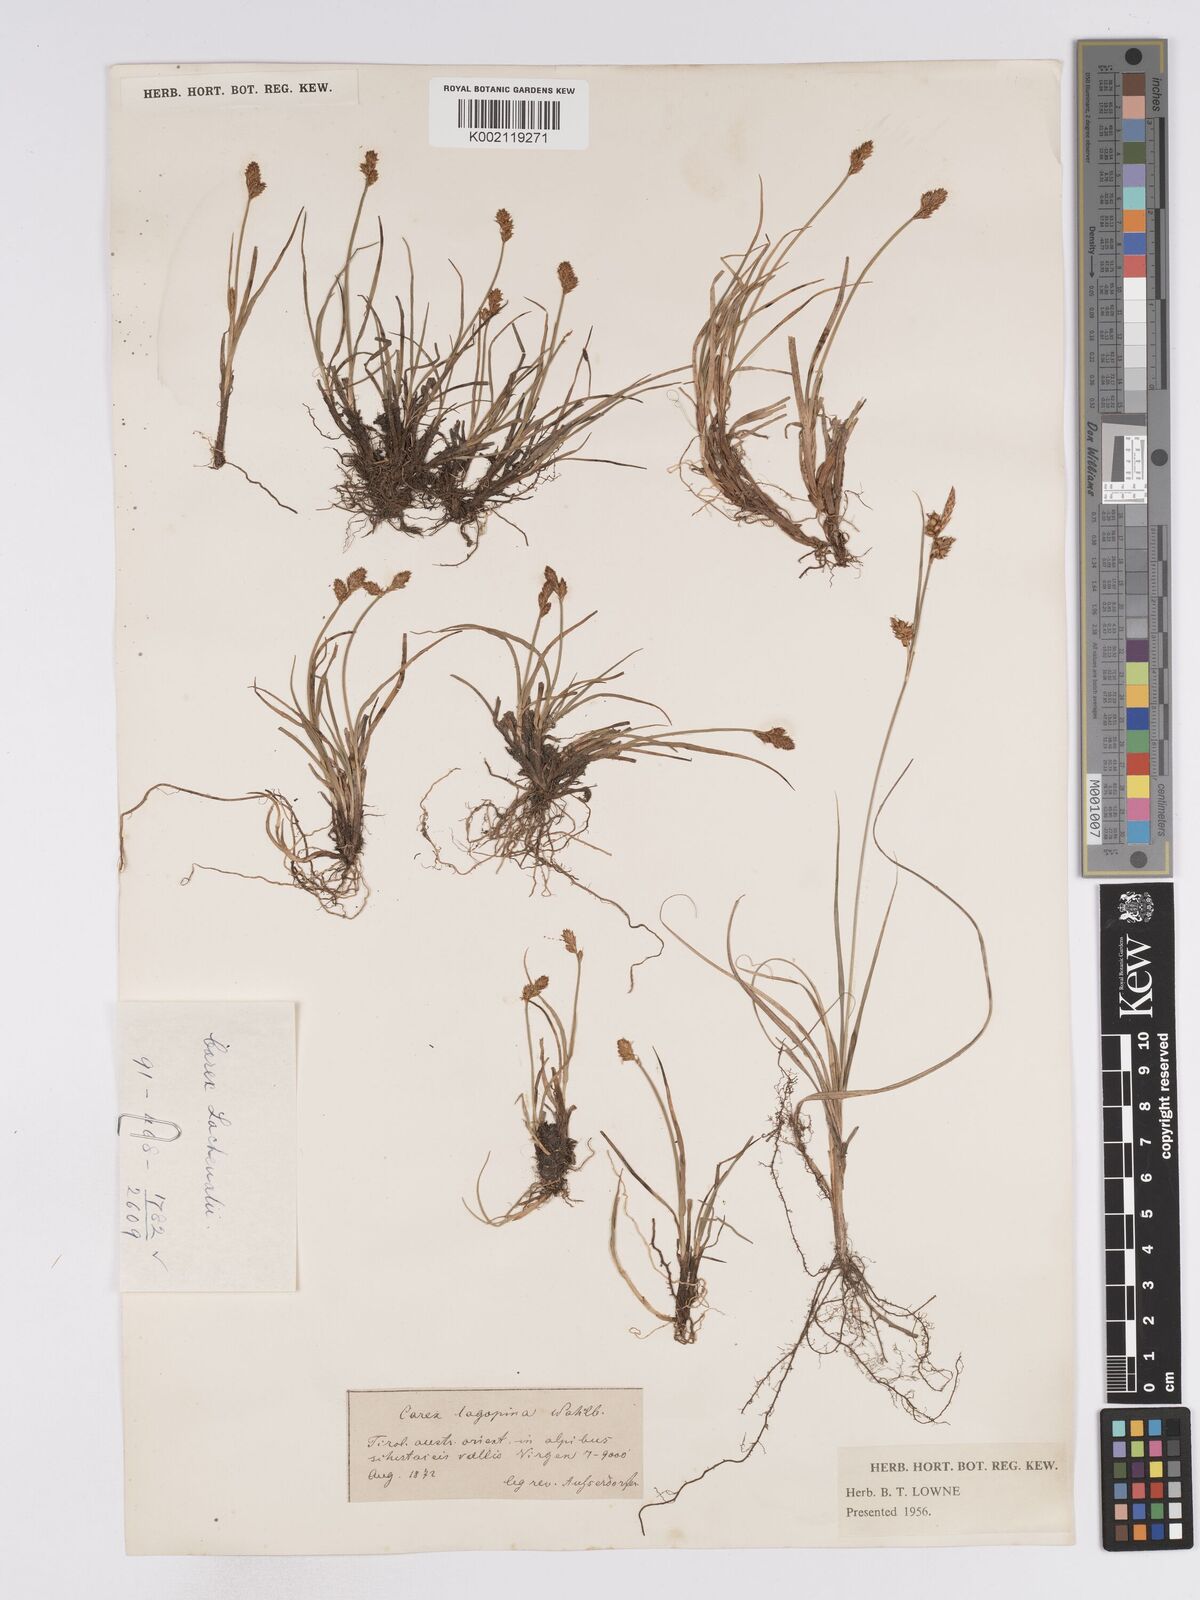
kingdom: Plantae
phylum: Tracheophyta
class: Liliopsida
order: Poales
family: Cyperaceae
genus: Carex
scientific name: Carex lachenalii
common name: Hare's-foot sedge
